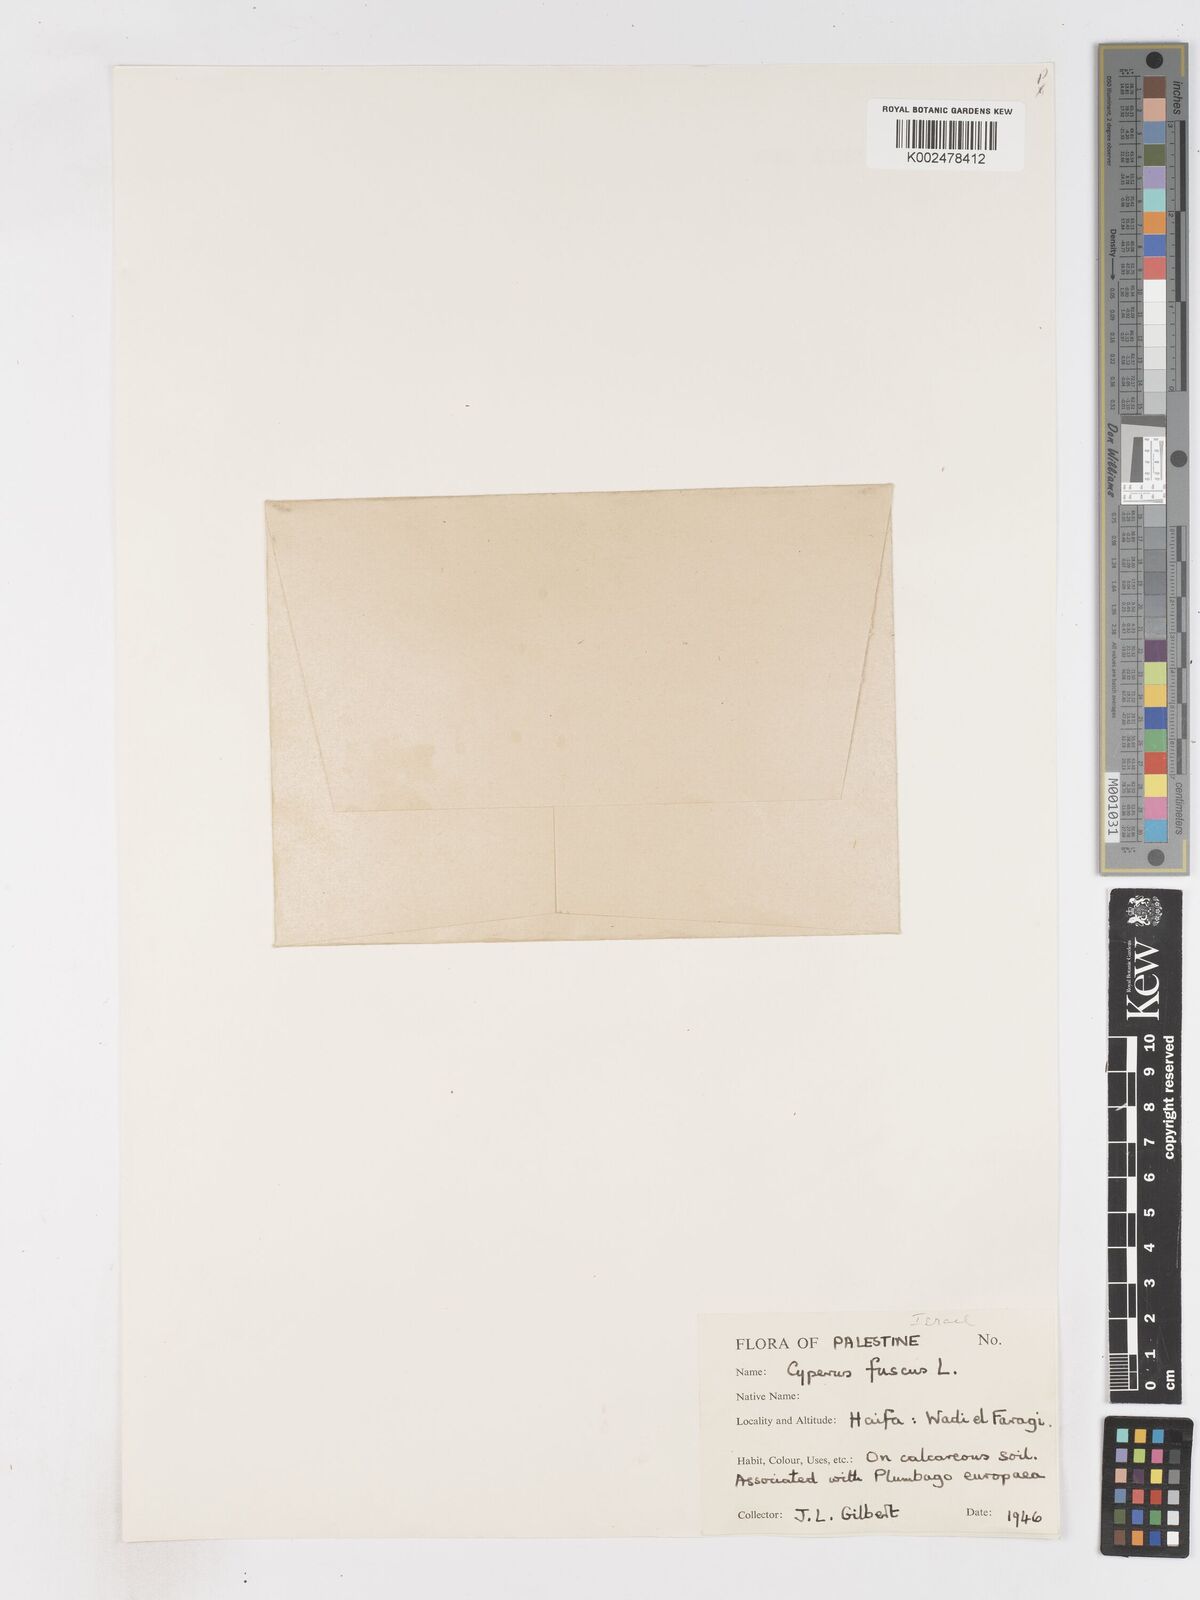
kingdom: Plantae
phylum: Tracheophyta
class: Liliopsida
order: Poales
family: Cyperaceae
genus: Cyperus
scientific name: Cyperus fuscus
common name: Brown galingale
